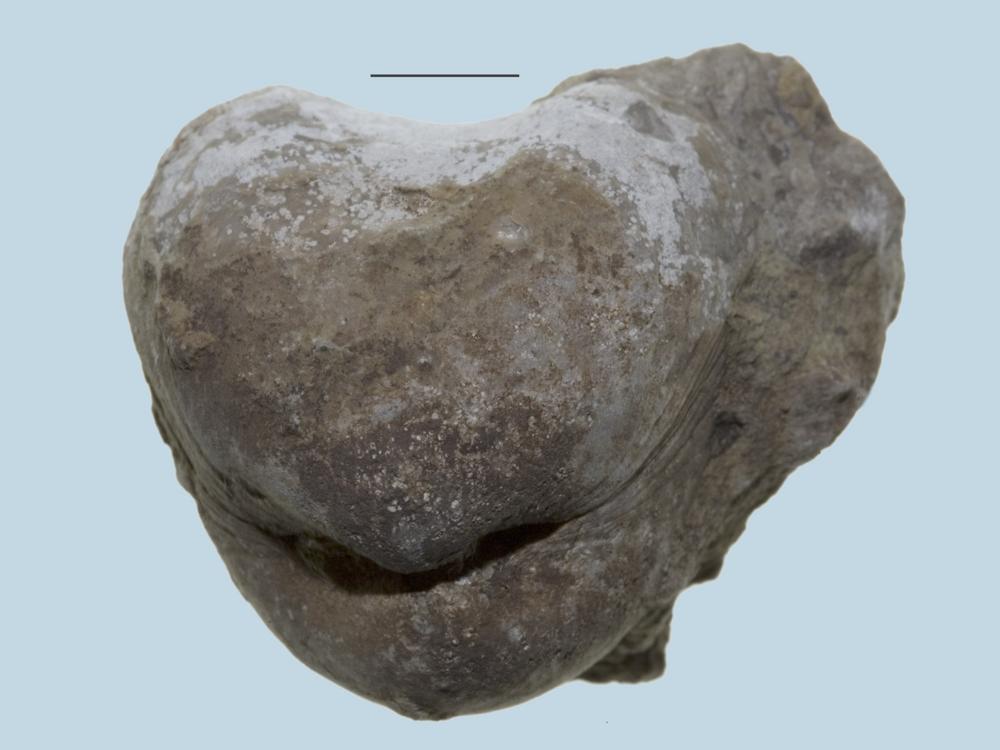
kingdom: Animalia
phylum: Brachiopoda
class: Rhynchonellata
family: Porambonitidae
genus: Porambonites
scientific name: Porambonites
